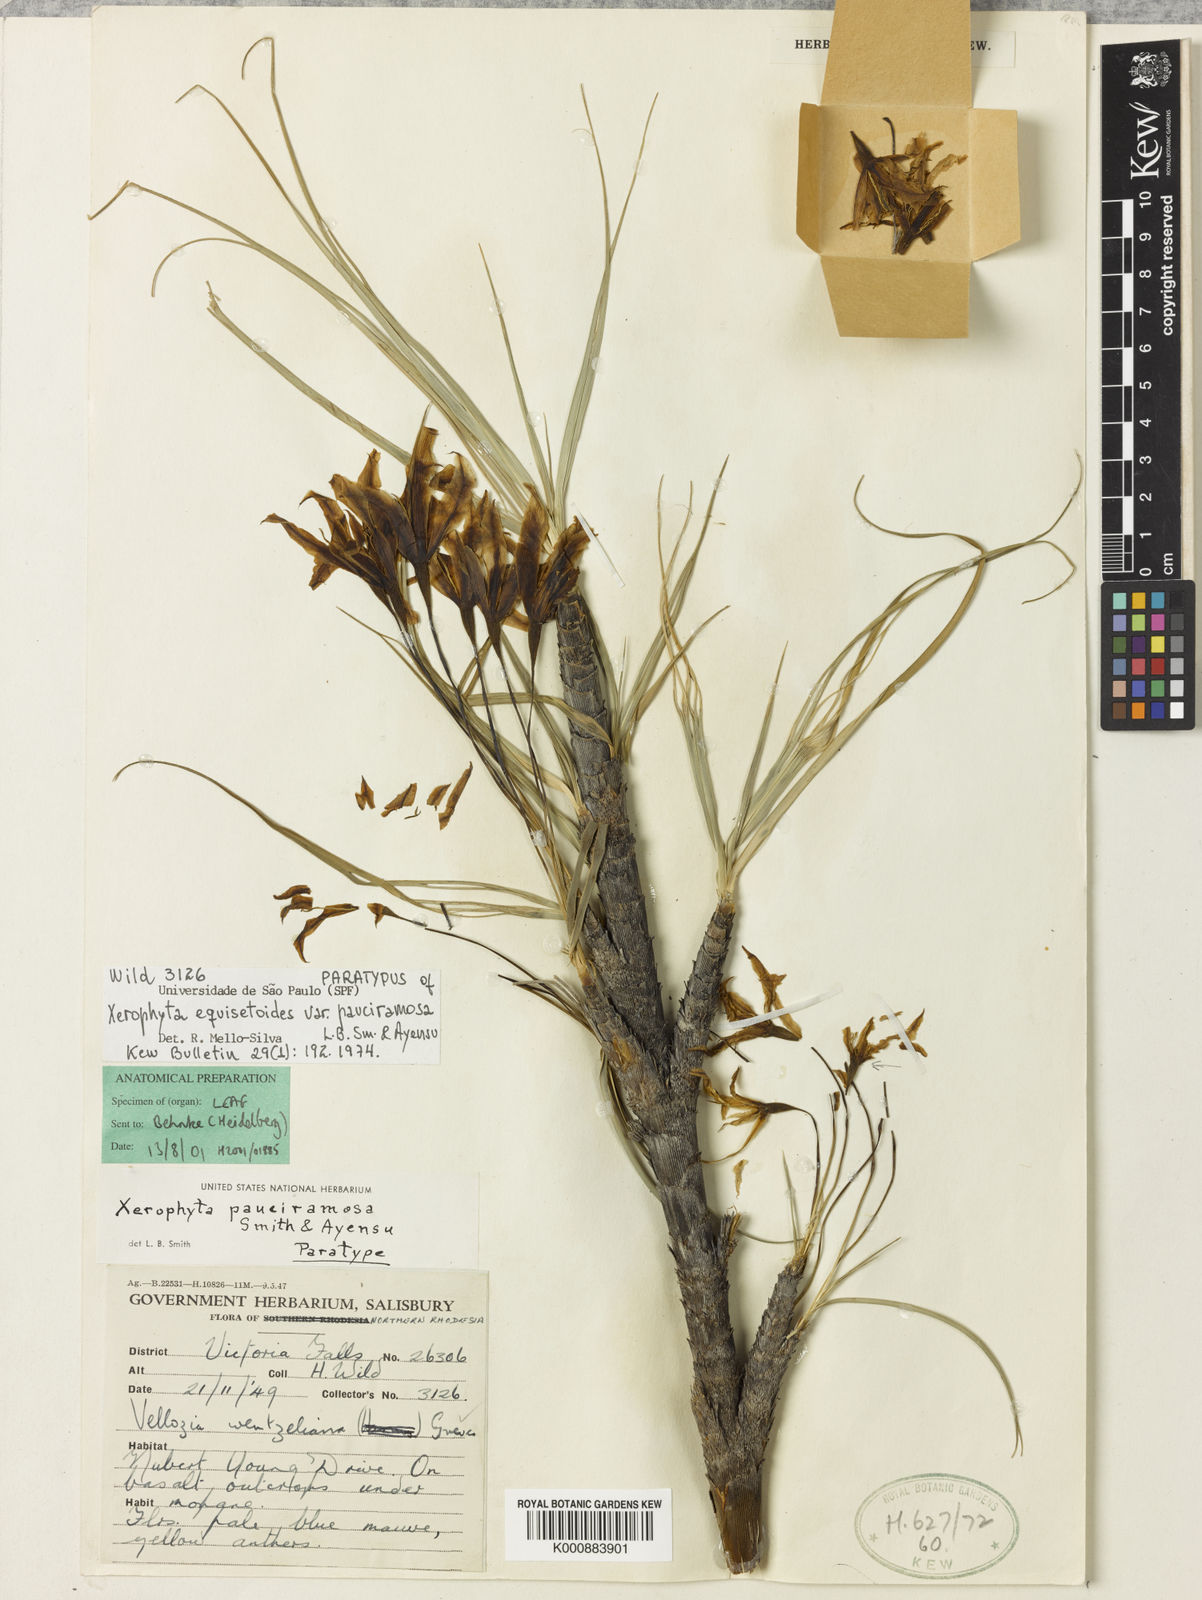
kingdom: Plantae
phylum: Tracheophyta
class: Liliopsida
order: Pandanales
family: Velloziaceae
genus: Xerophyta
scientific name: Xerophyta pauciramosa
